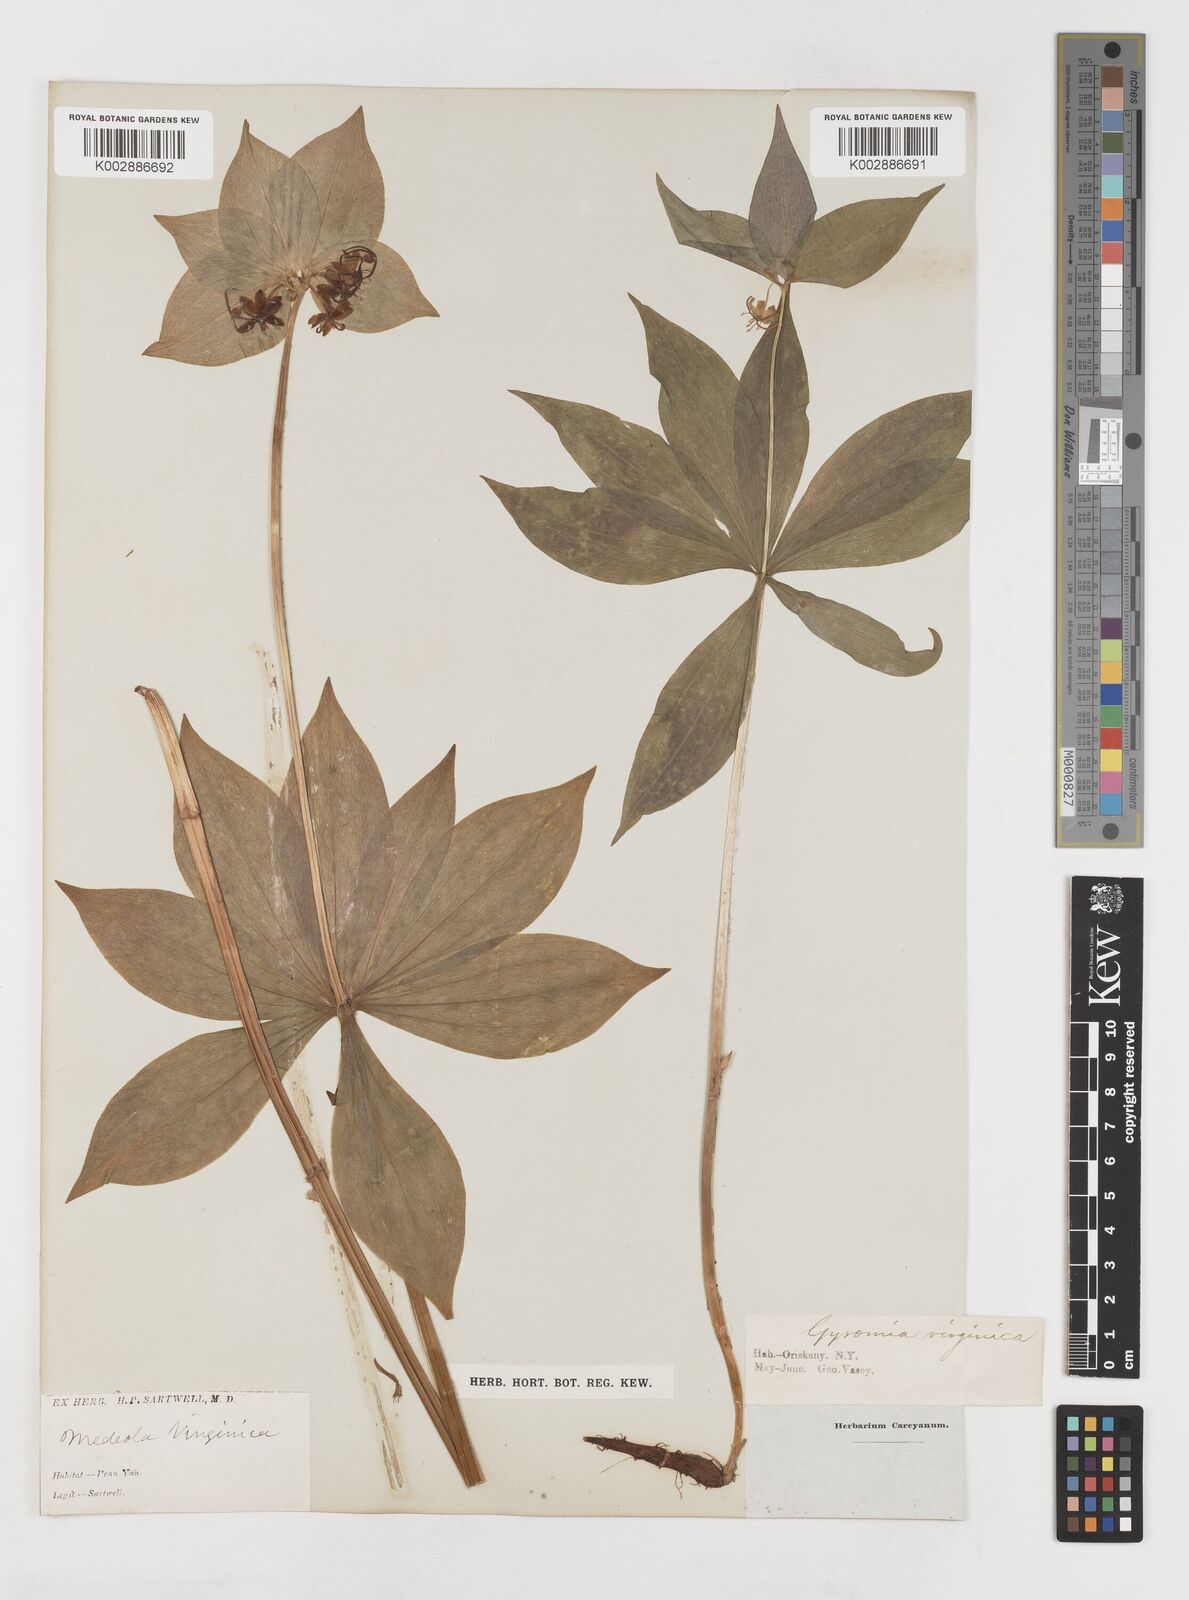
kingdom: Plantae
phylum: Tracheophyta
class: Liliopsida
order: Liliales
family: Liliaceae
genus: Medeola
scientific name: Medeola virginiana
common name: Indian cucumber-root
